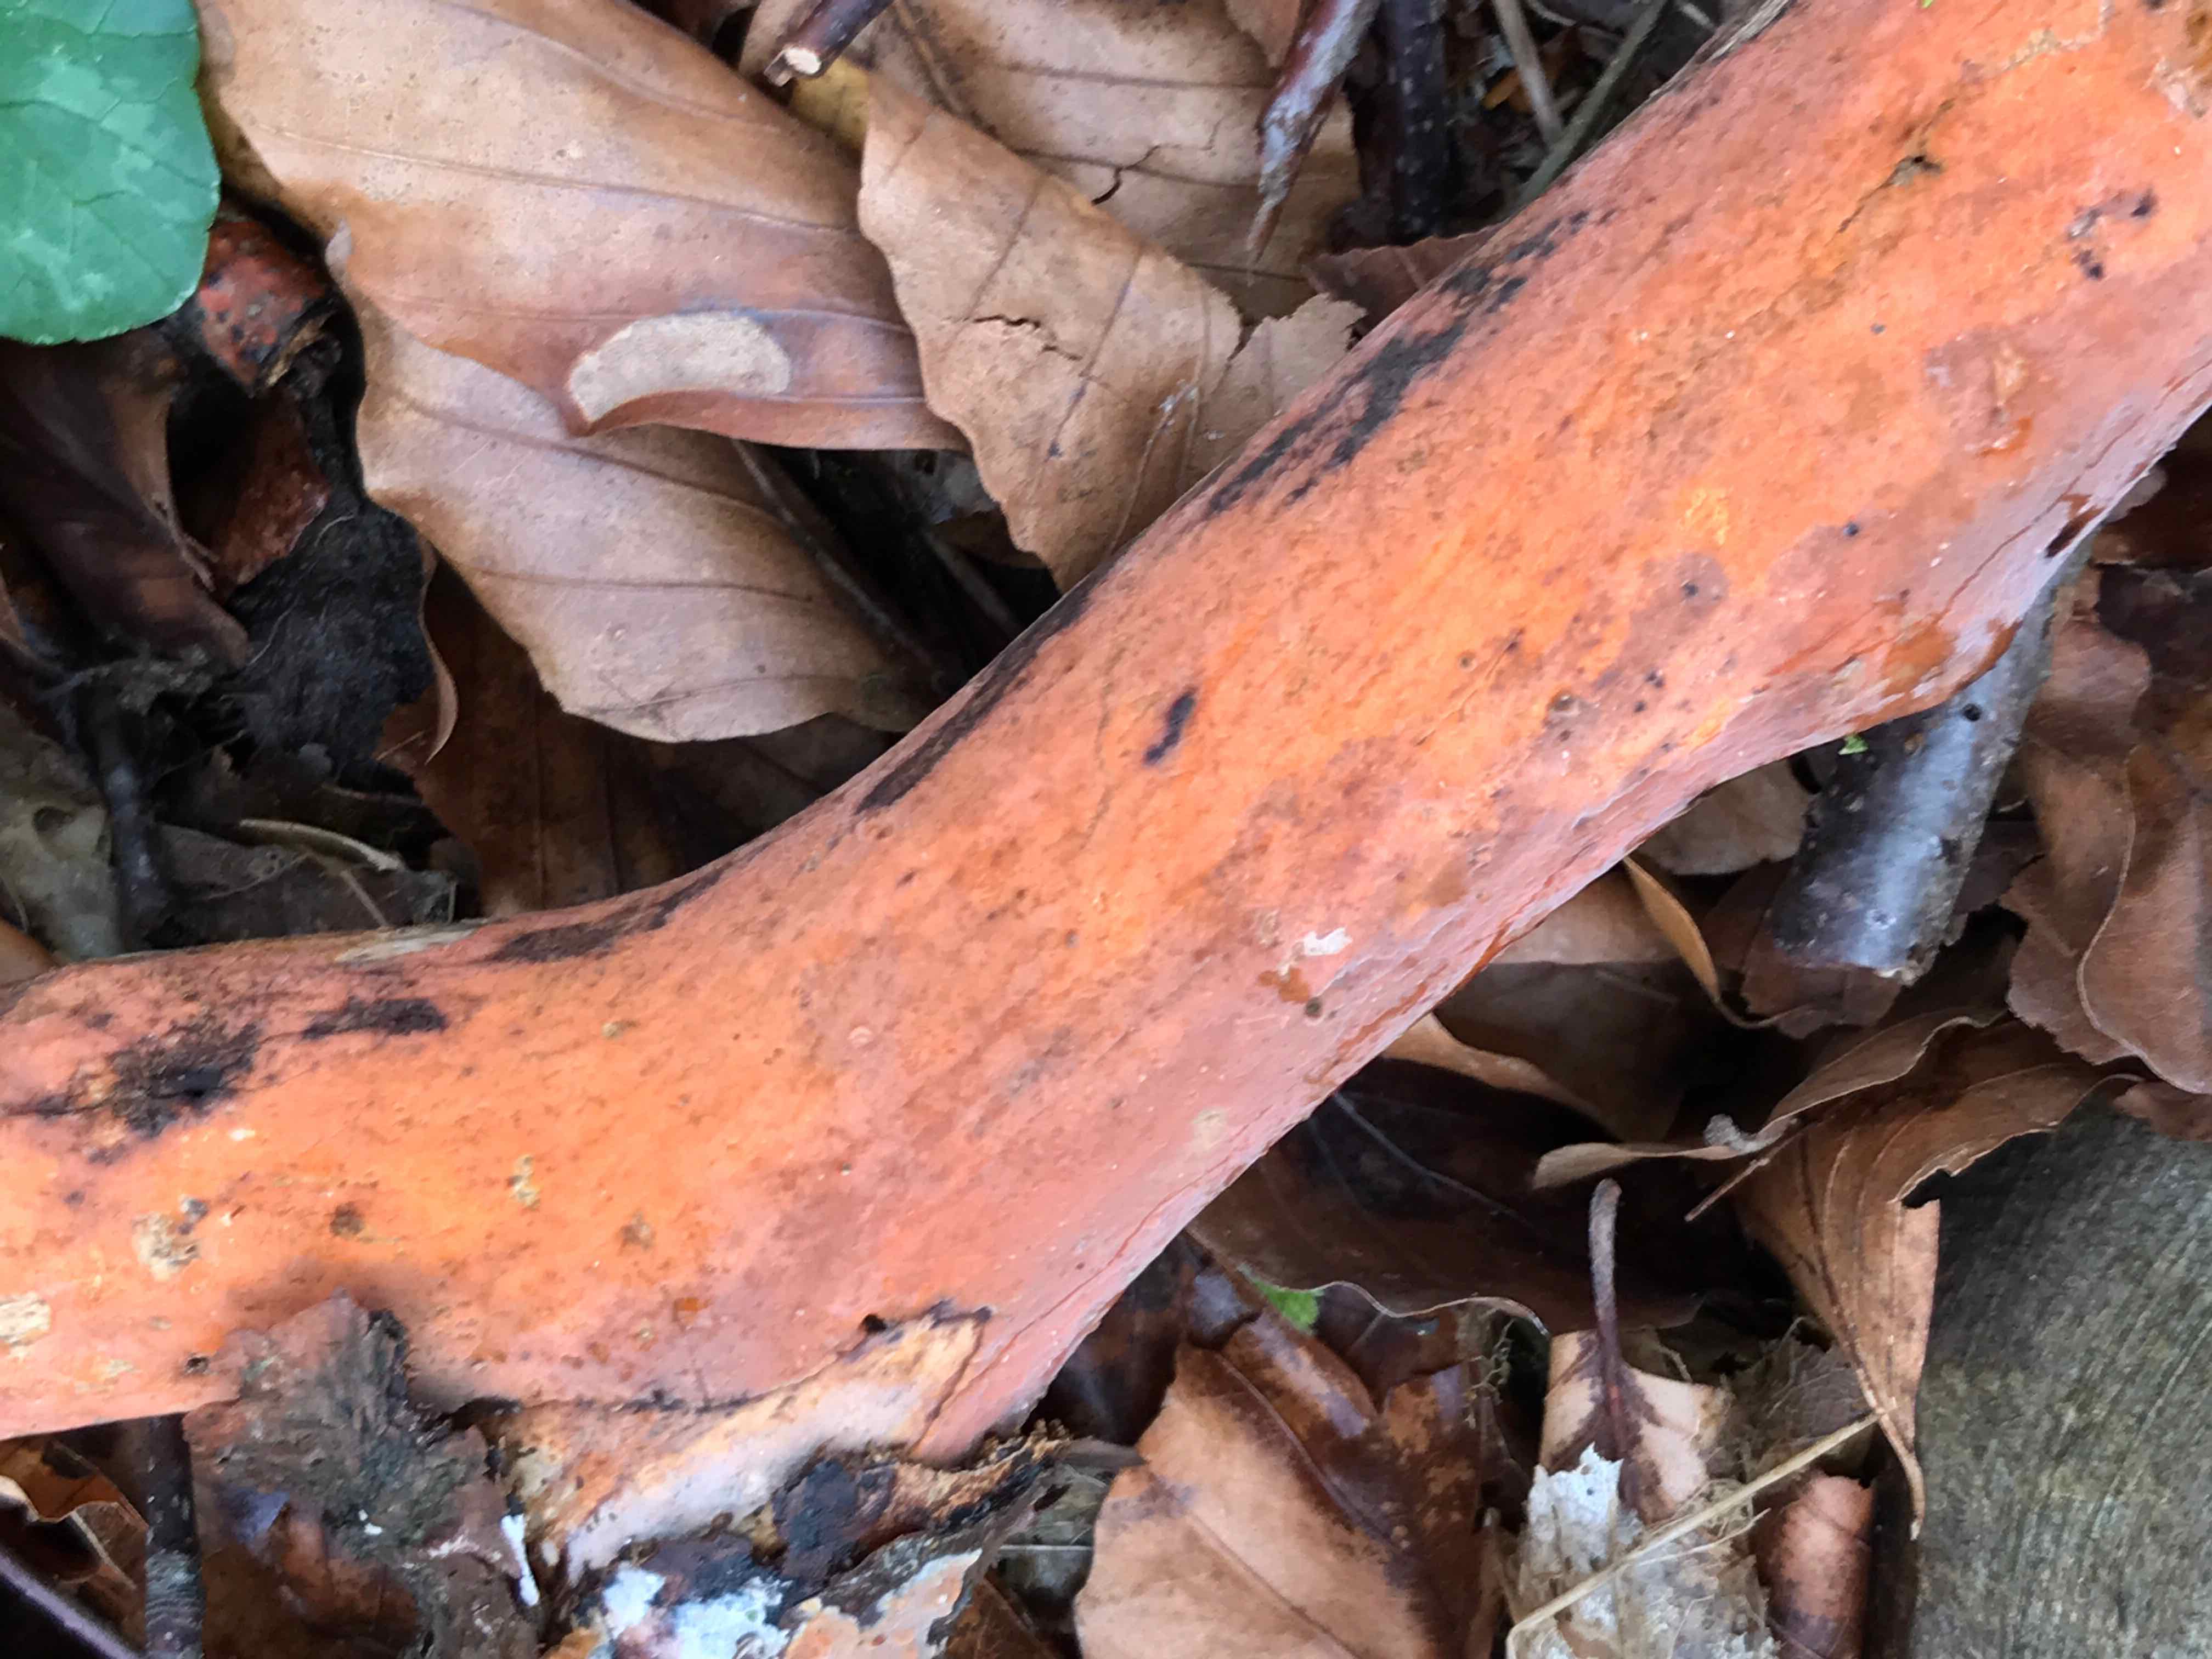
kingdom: Fungi
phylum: Basidiomycota
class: Agaricomycetes
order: Russulales
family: Peniophoraceae
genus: Peniophora
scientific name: Peniophora incarnata
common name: laksefarvet voksskind
